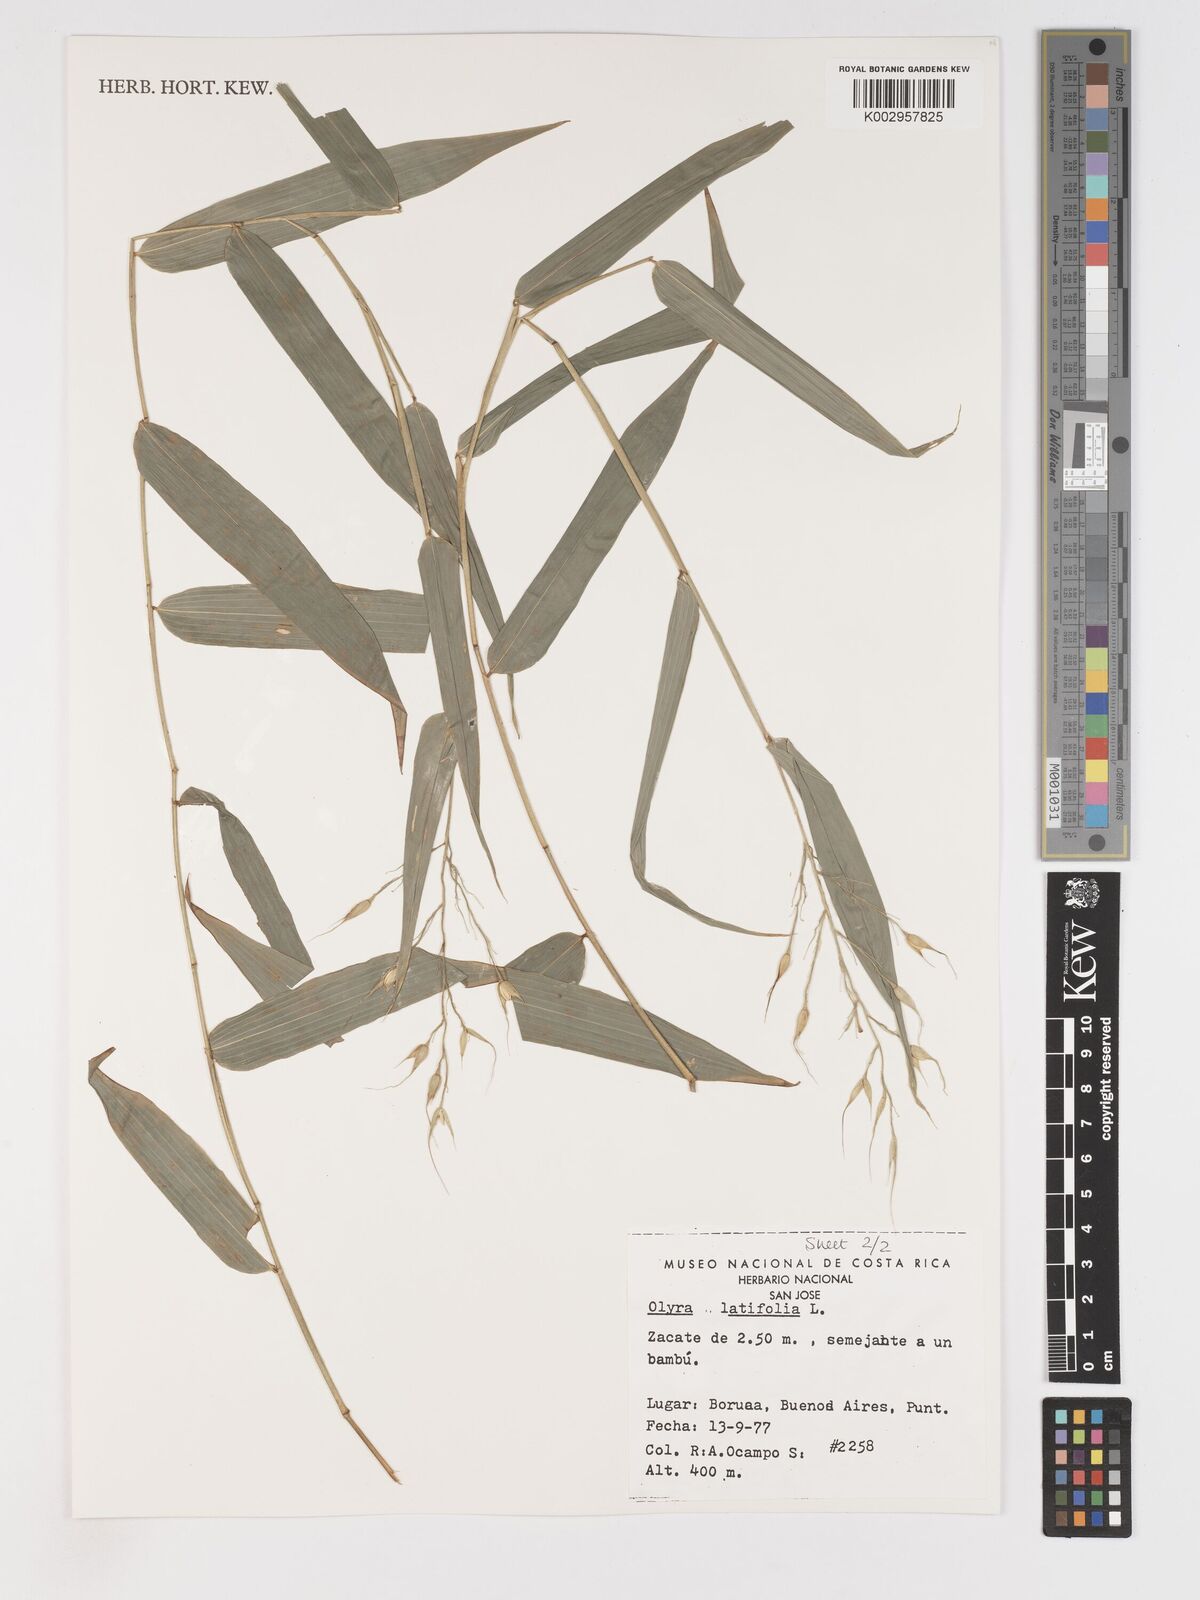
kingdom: Plantae
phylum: Tracheophyta
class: Liliopsida
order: Poales
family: Poaceae
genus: Olyra
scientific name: Olyra latifolia
